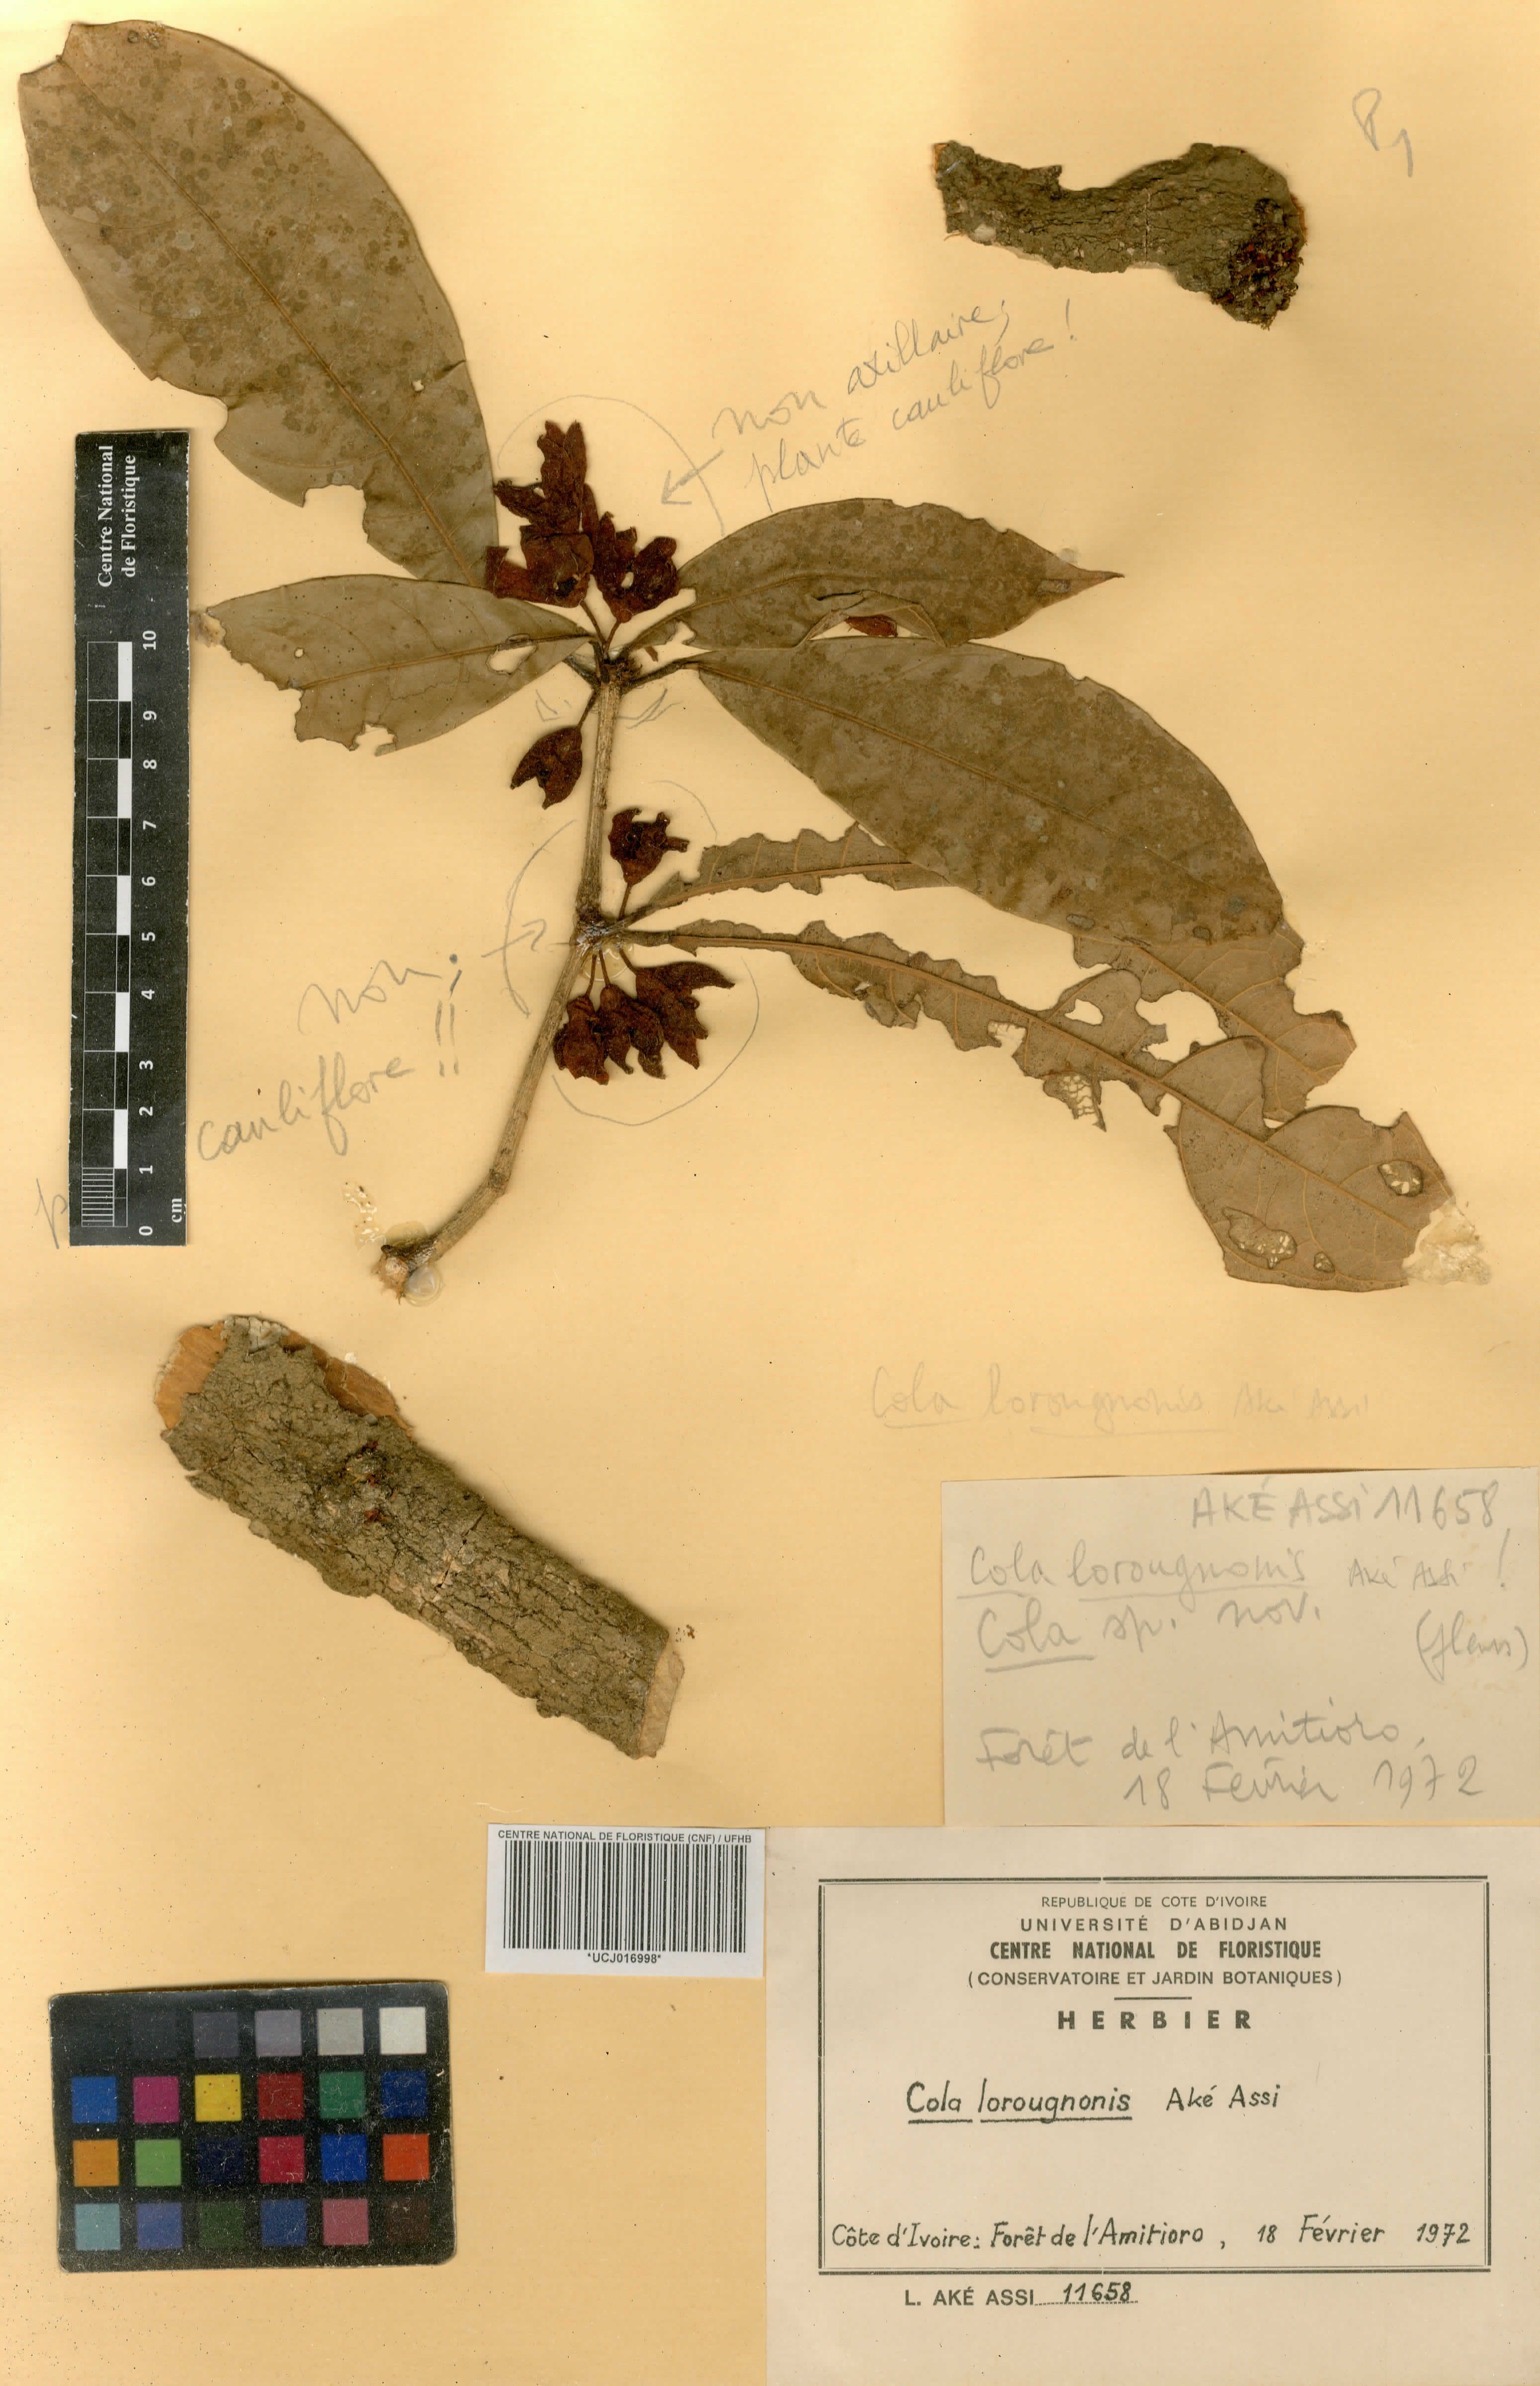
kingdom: Plantae
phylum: Tracheophyta
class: Magnoliopsida
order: Malvales
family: Malvaceae
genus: Cola
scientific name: Cola lorougnonis
